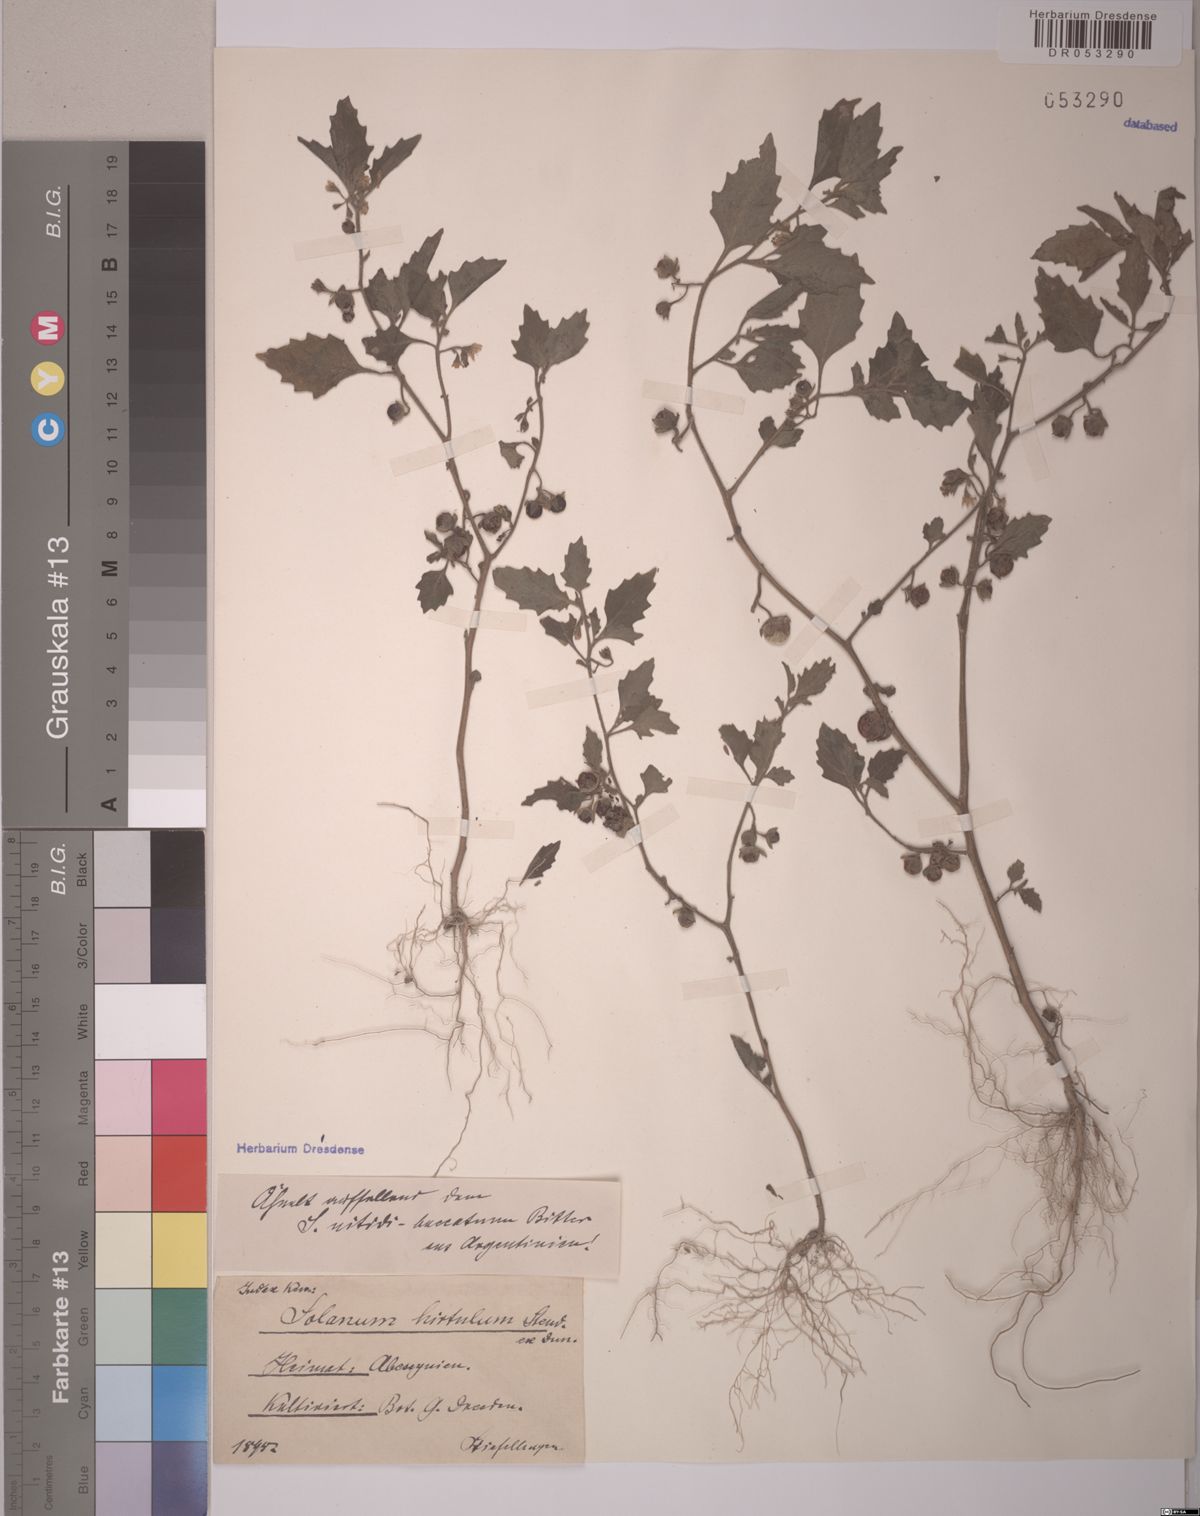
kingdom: Plantae
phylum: Tracheophyta
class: Magnoliopsida
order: Solanales
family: Solanaceae
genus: Solanum
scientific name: Solanum hirtulum
